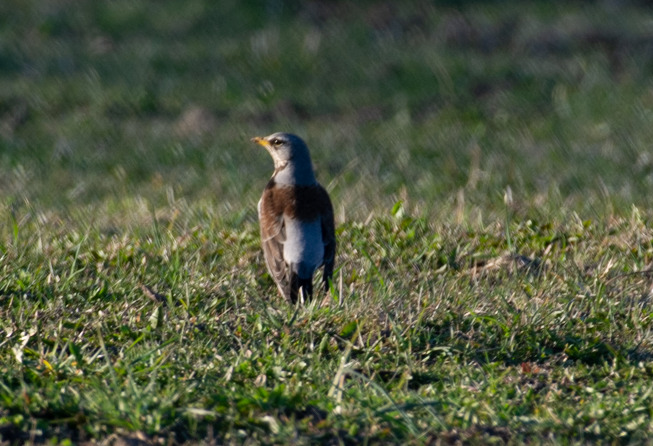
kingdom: Animalia
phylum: Chordata
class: Aves
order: Passeriformes
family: Turdidae
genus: Turdus
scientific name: Turdus pilaris
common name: Sjagger
